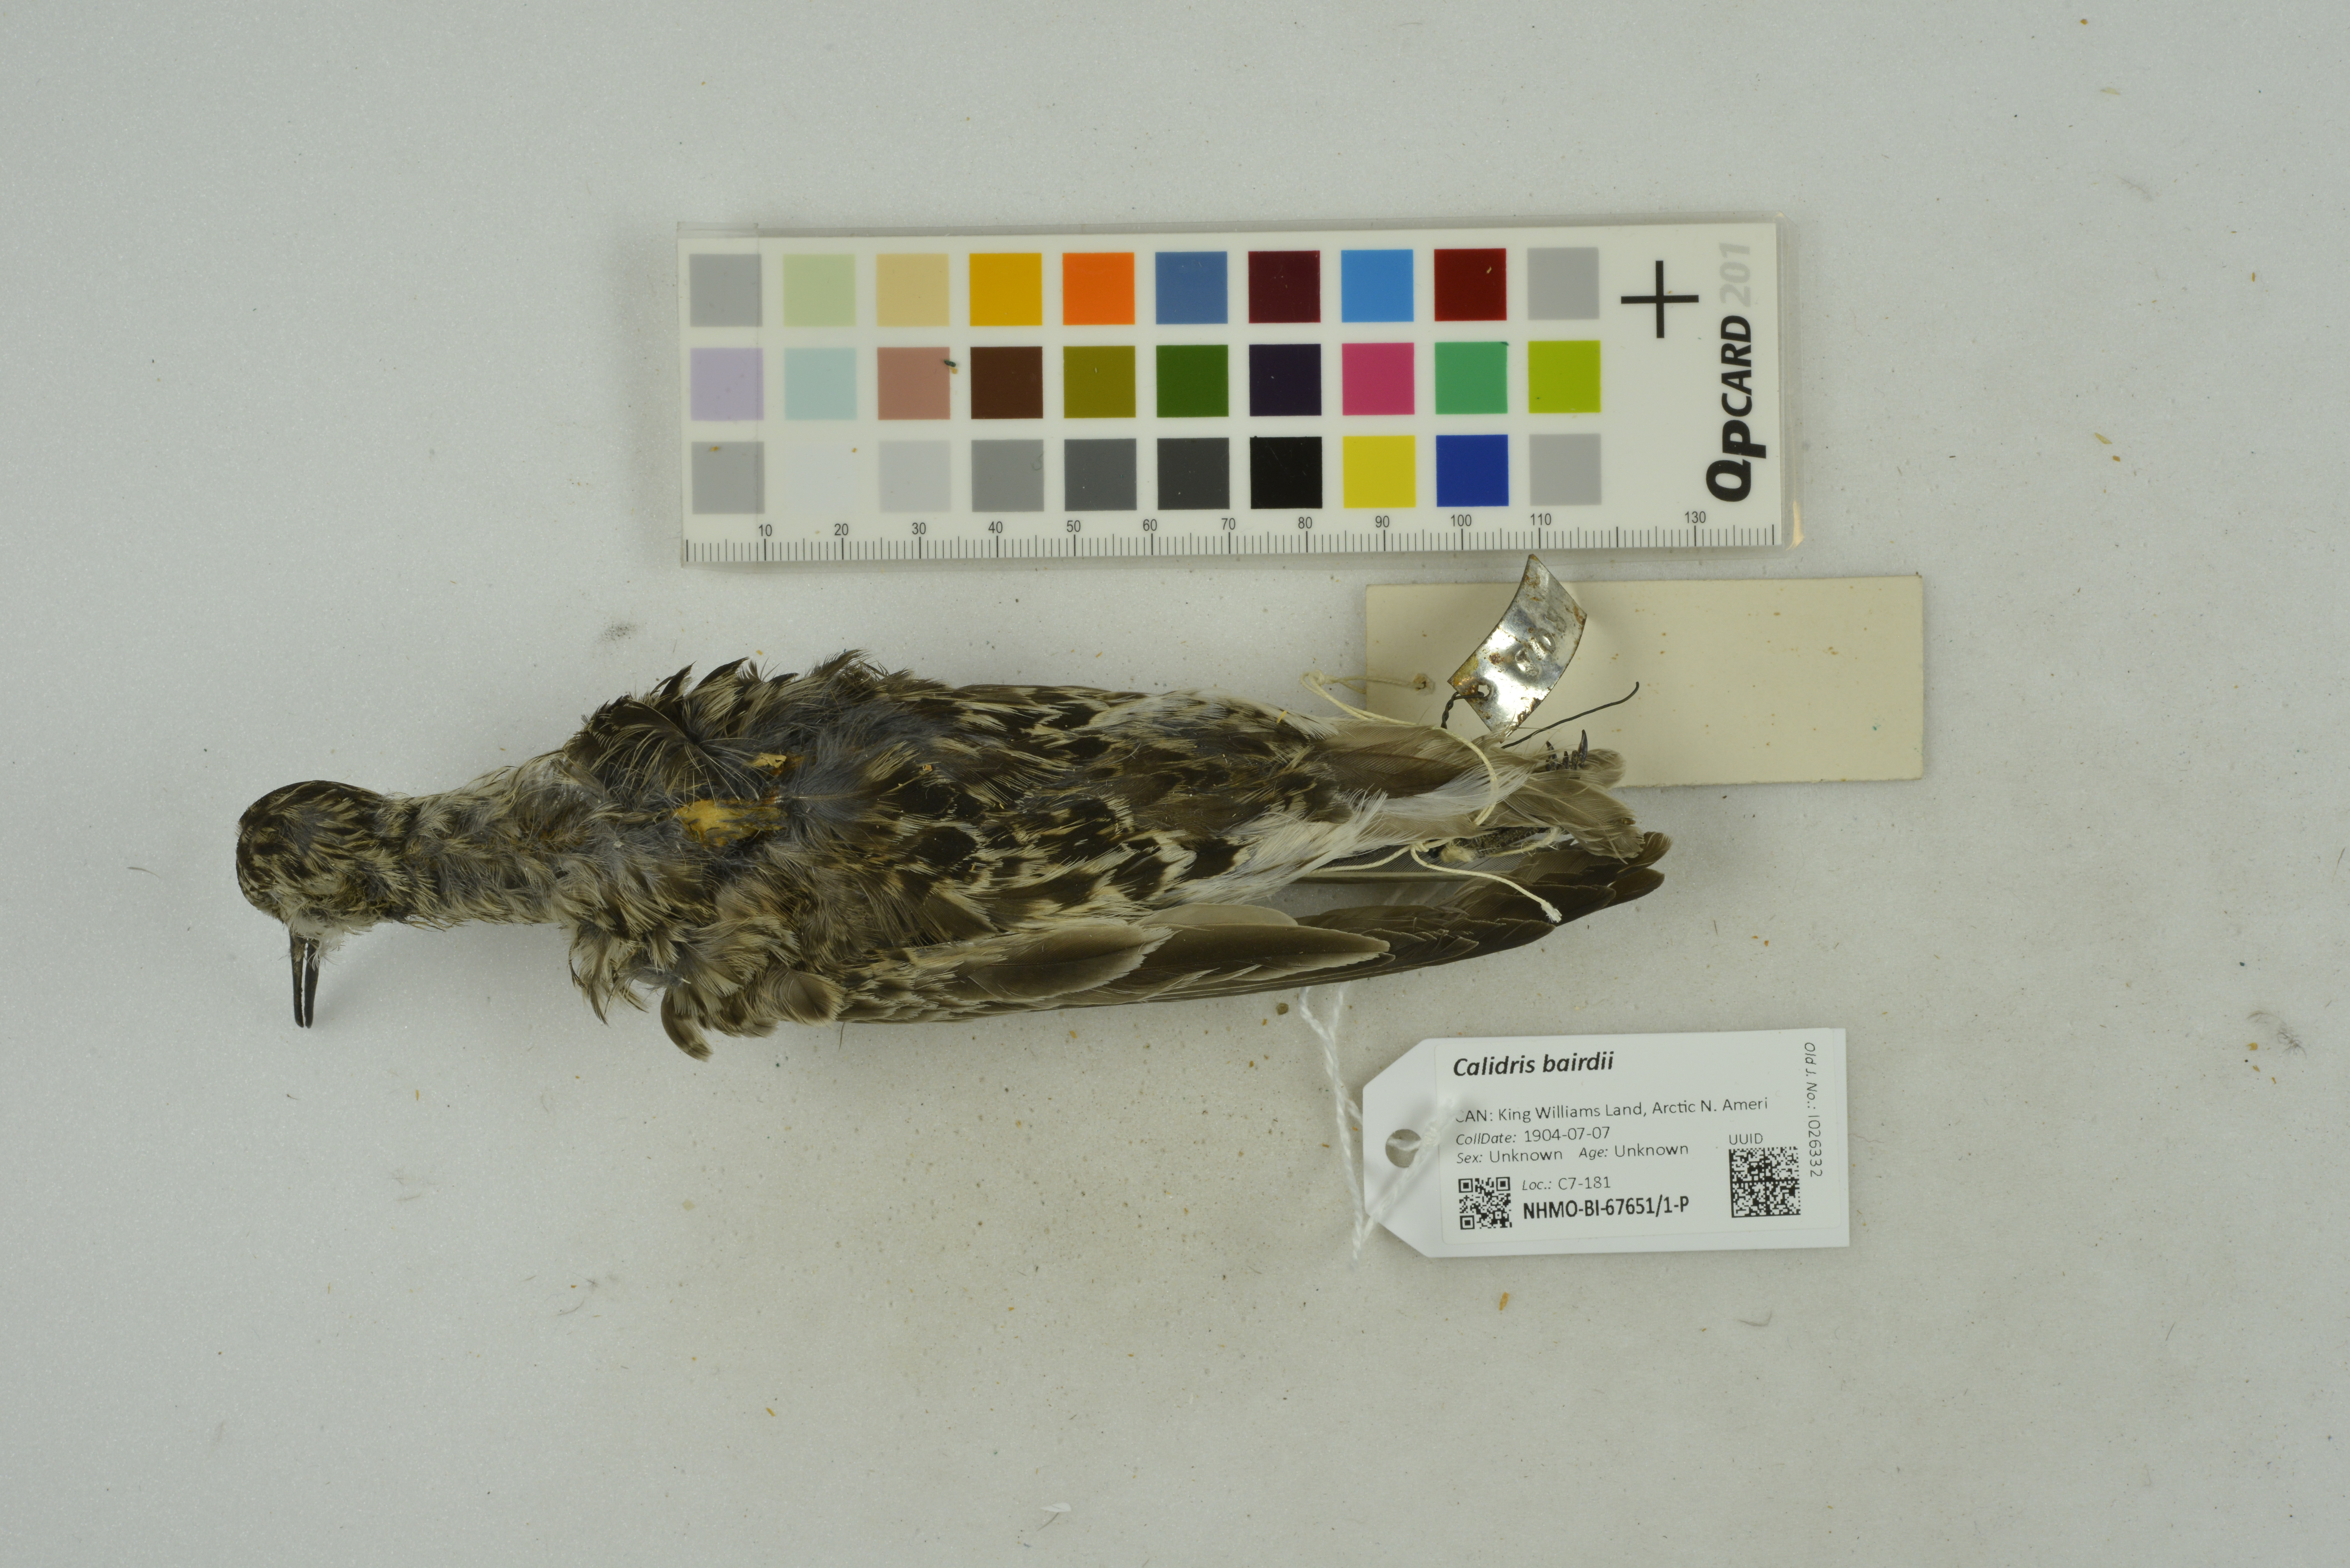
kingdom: Animalia
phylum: Chordata
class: Aves
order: Charadriiformes
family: Scolopacidae
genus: Calidris
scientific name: Calidris bairdii
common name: Baird's sandpiper
